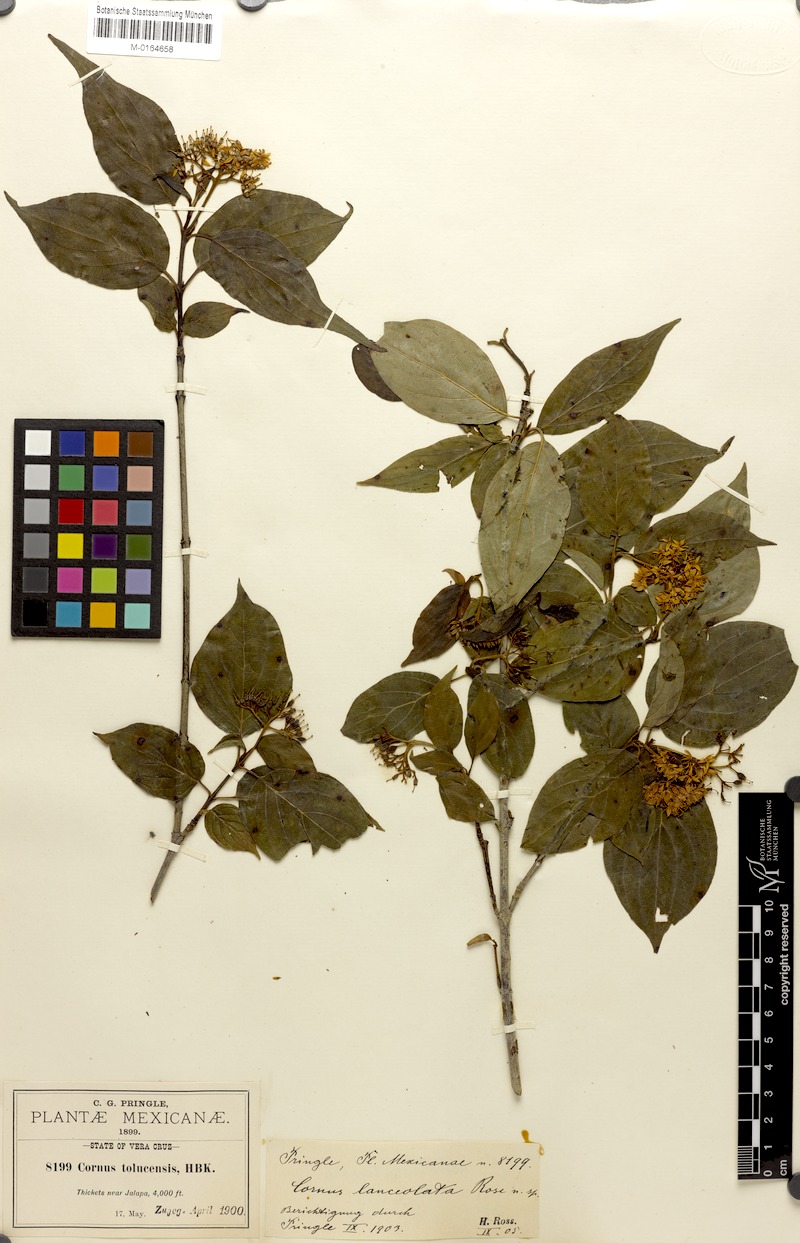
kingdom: Plantae
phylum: Tracheophyta
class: Magnoliopsida
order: Cornales
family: Cornaceae
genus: Cornus
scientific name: Cornus excelsa
